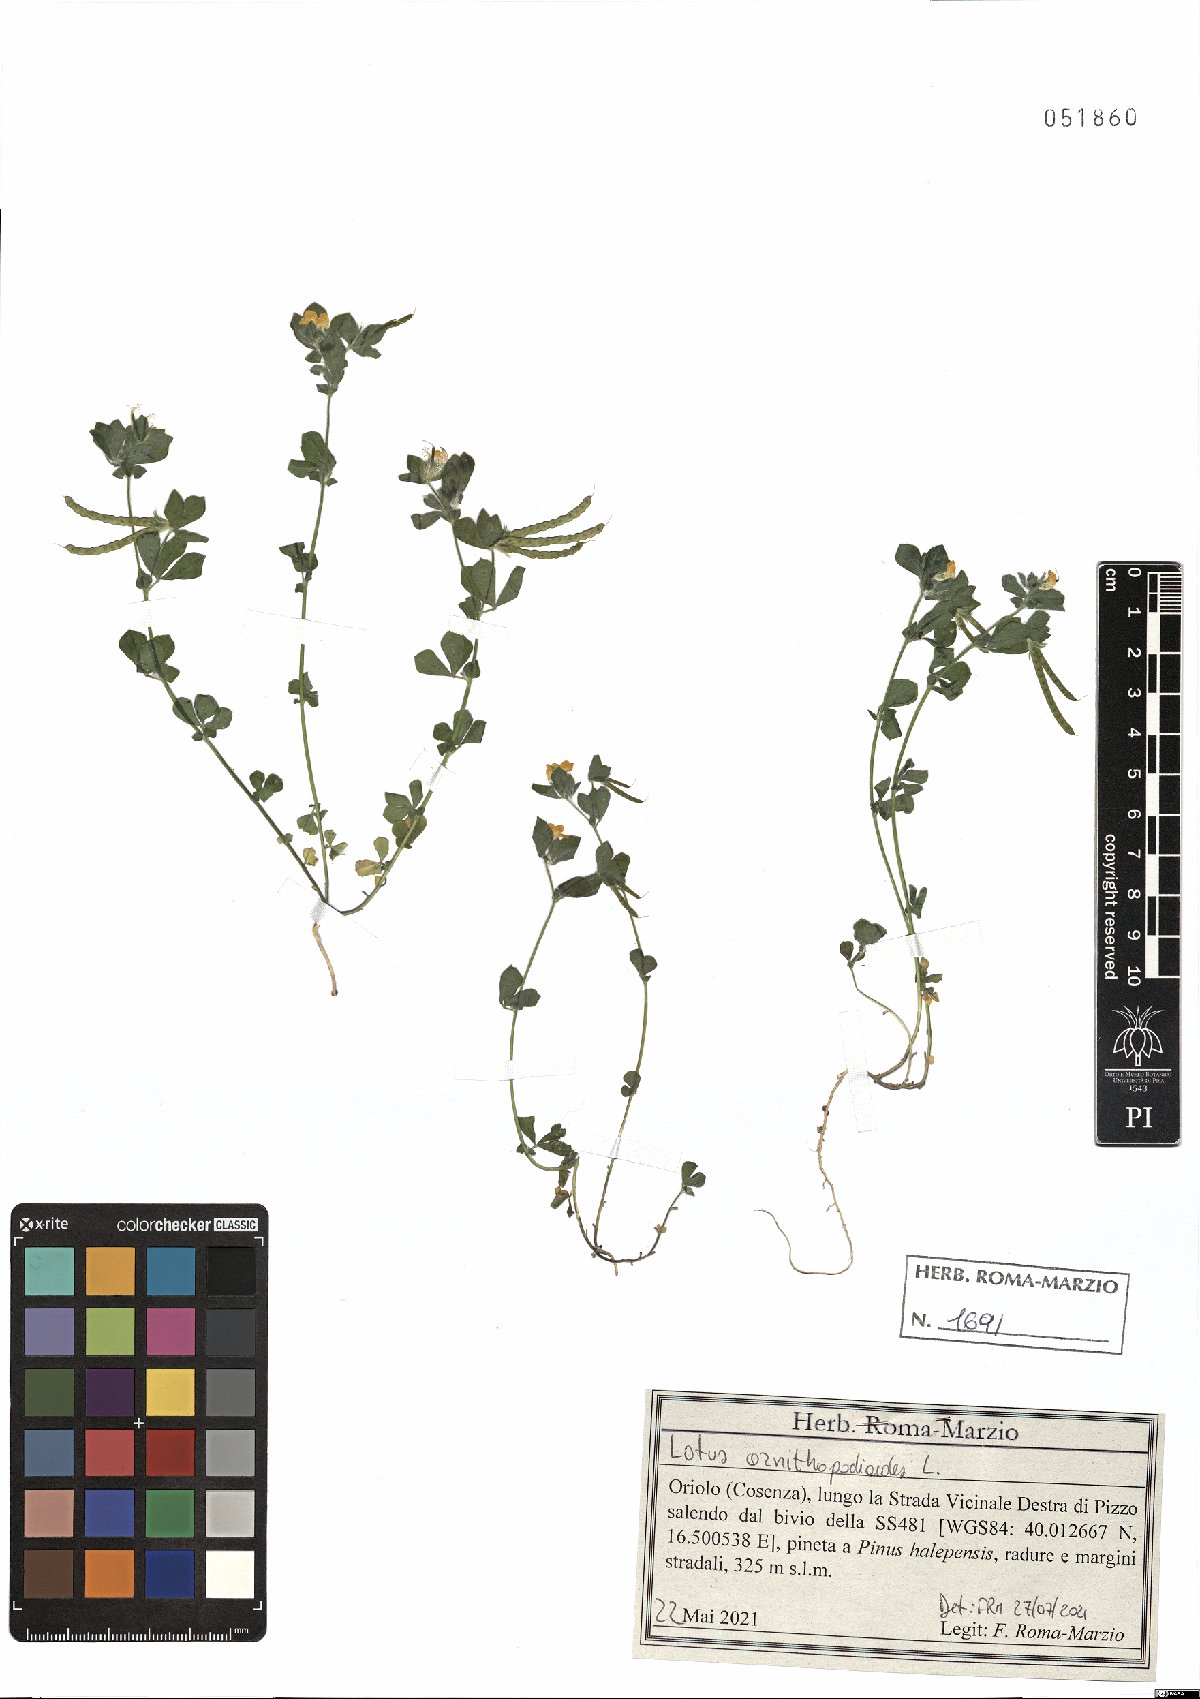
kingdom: Plantae
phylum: Tracheophyta
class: Magnoliopsida
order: Fabales
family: Fabaceae
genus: Lotus
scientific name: Lotus ornithopodioides
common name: Southern bird's-foot trefoil
